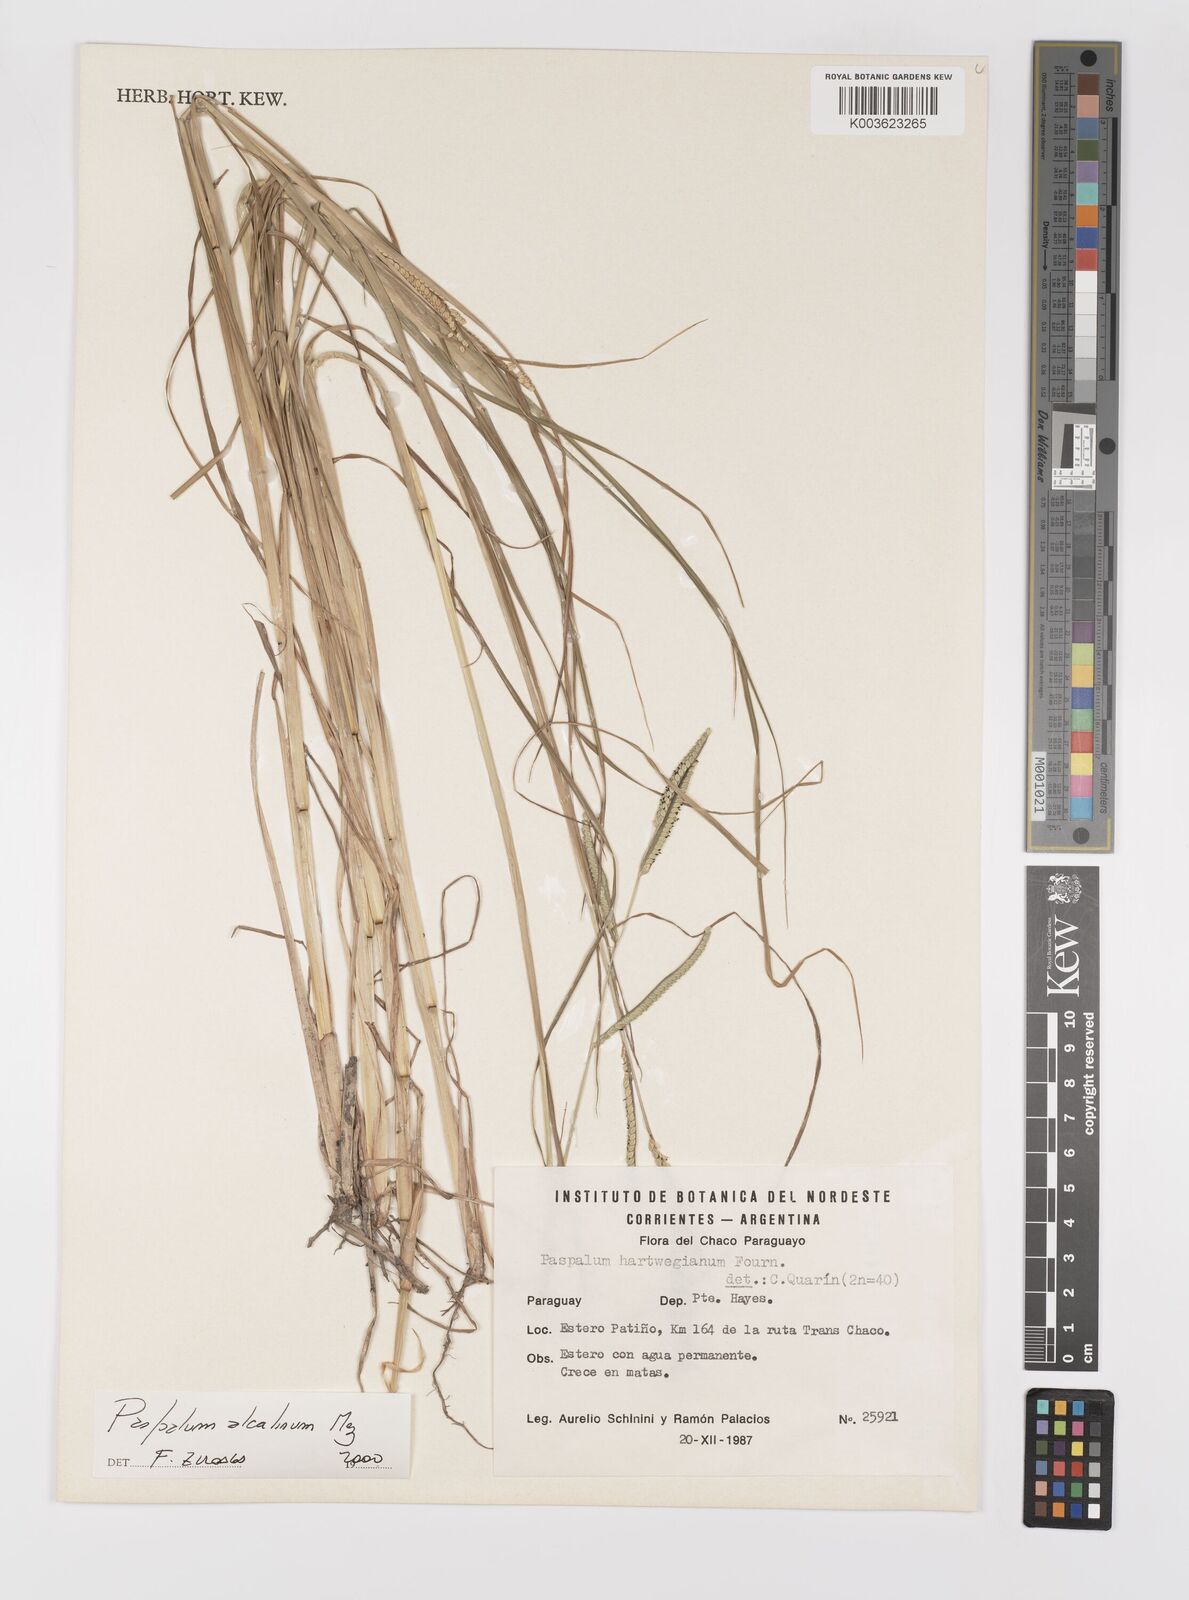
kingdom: Plantae
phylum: Tracheophyta
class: Liliopsida
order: Poales
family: Poaceae
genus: Paspalum
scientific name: Paspalum alcalinum
